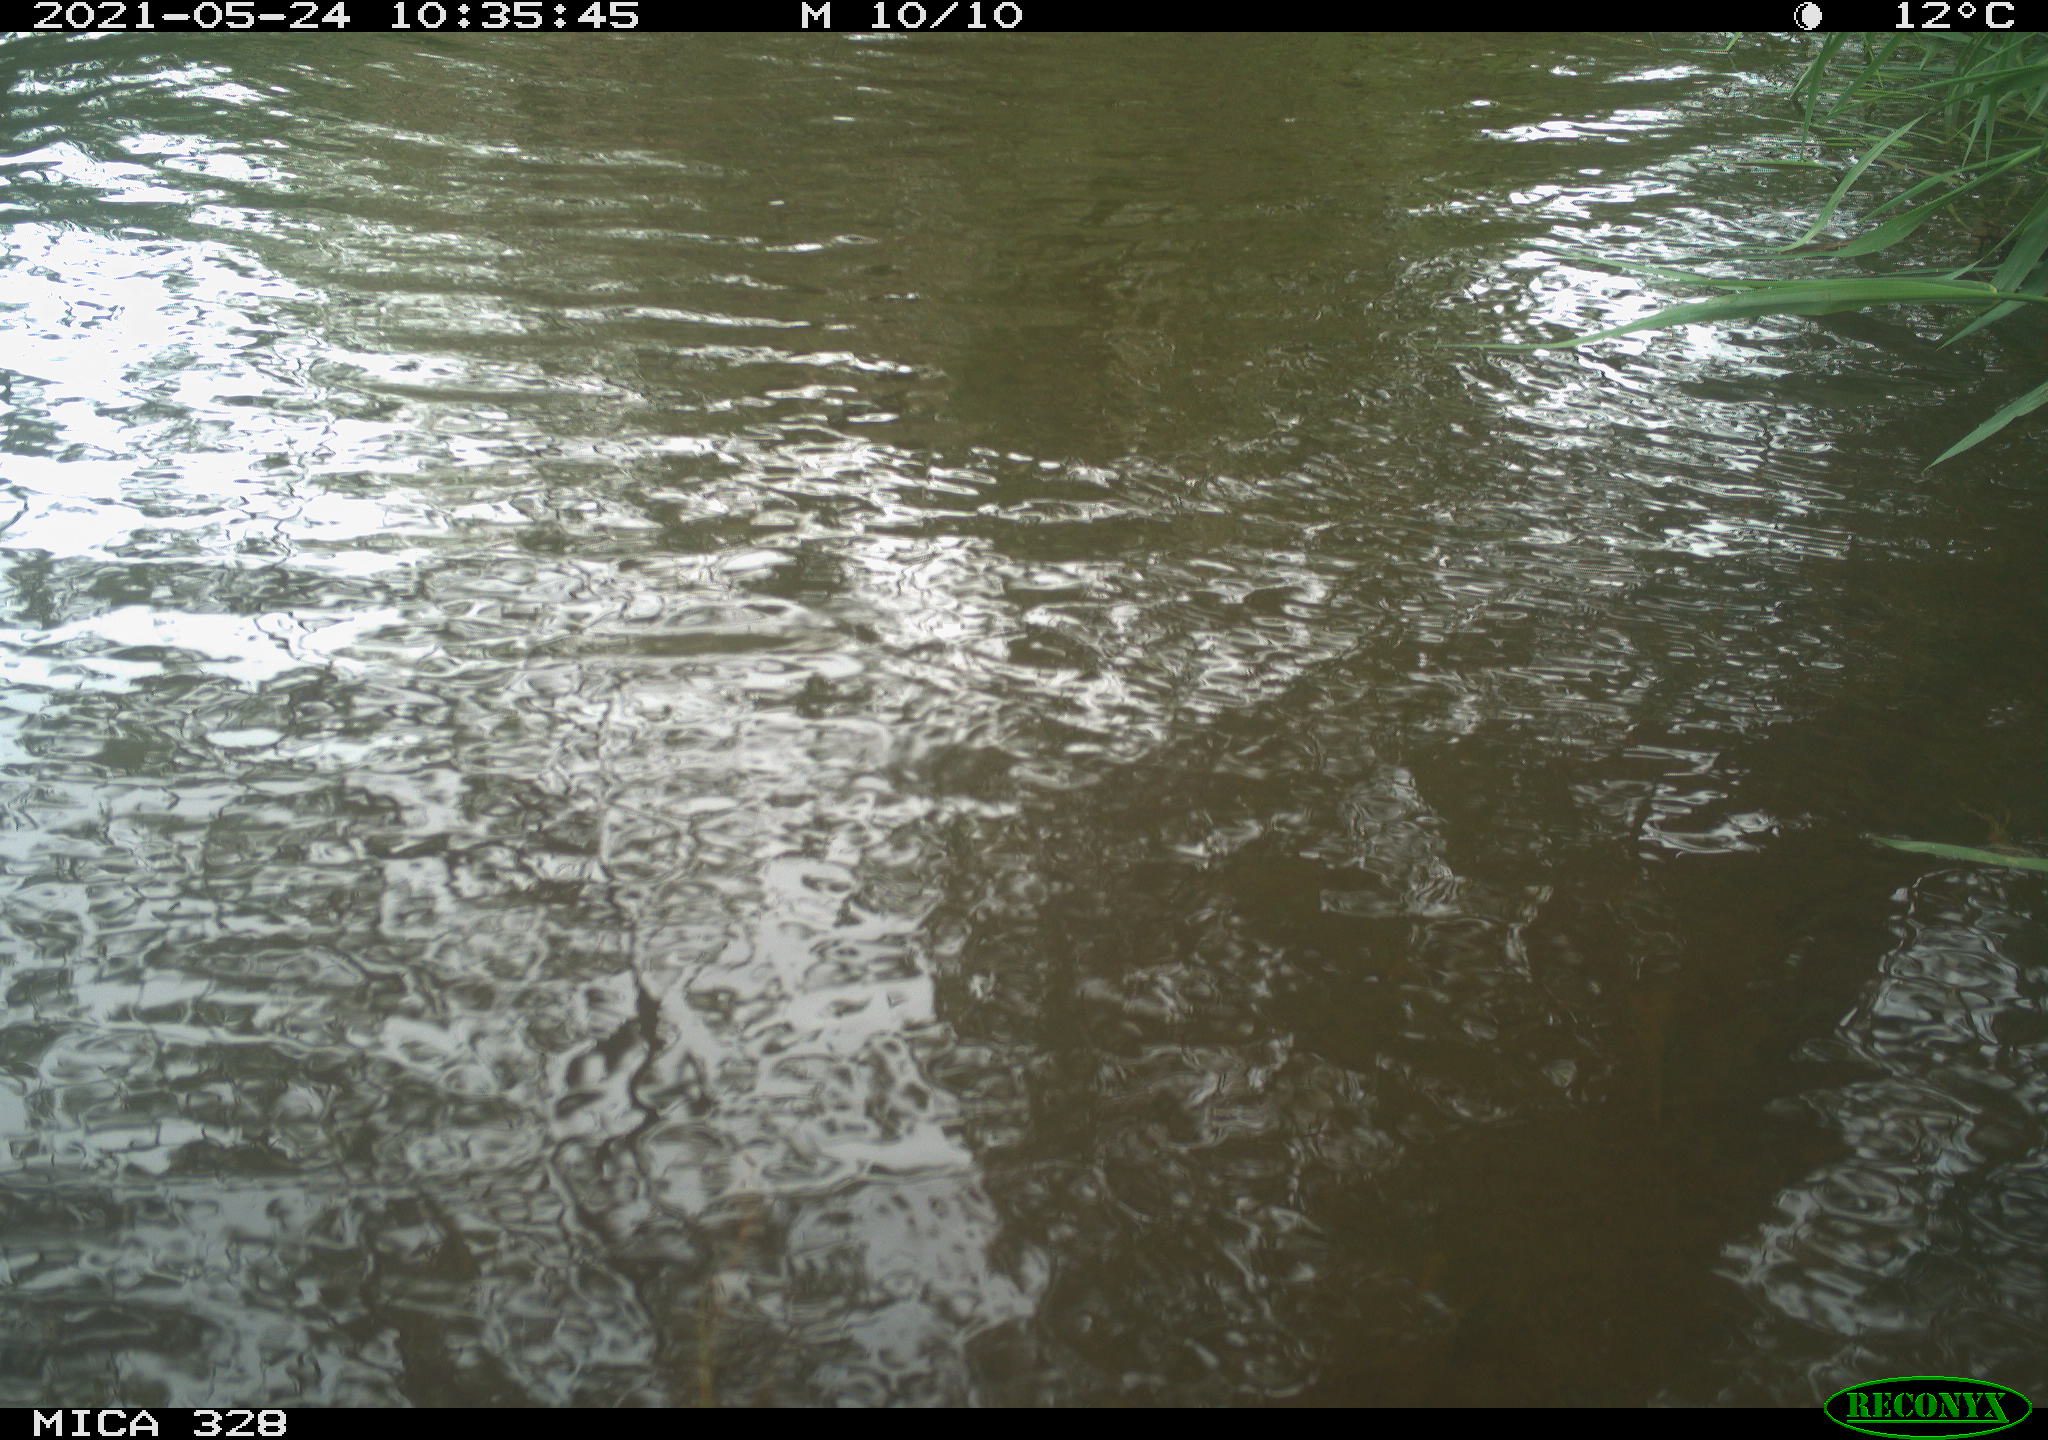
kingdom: Animalia
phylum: Chordata
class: Mammalia
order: Rodentia
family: Cricetidae
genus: Ondatra
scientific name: Ondatra zibethicus
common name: Muskrat
